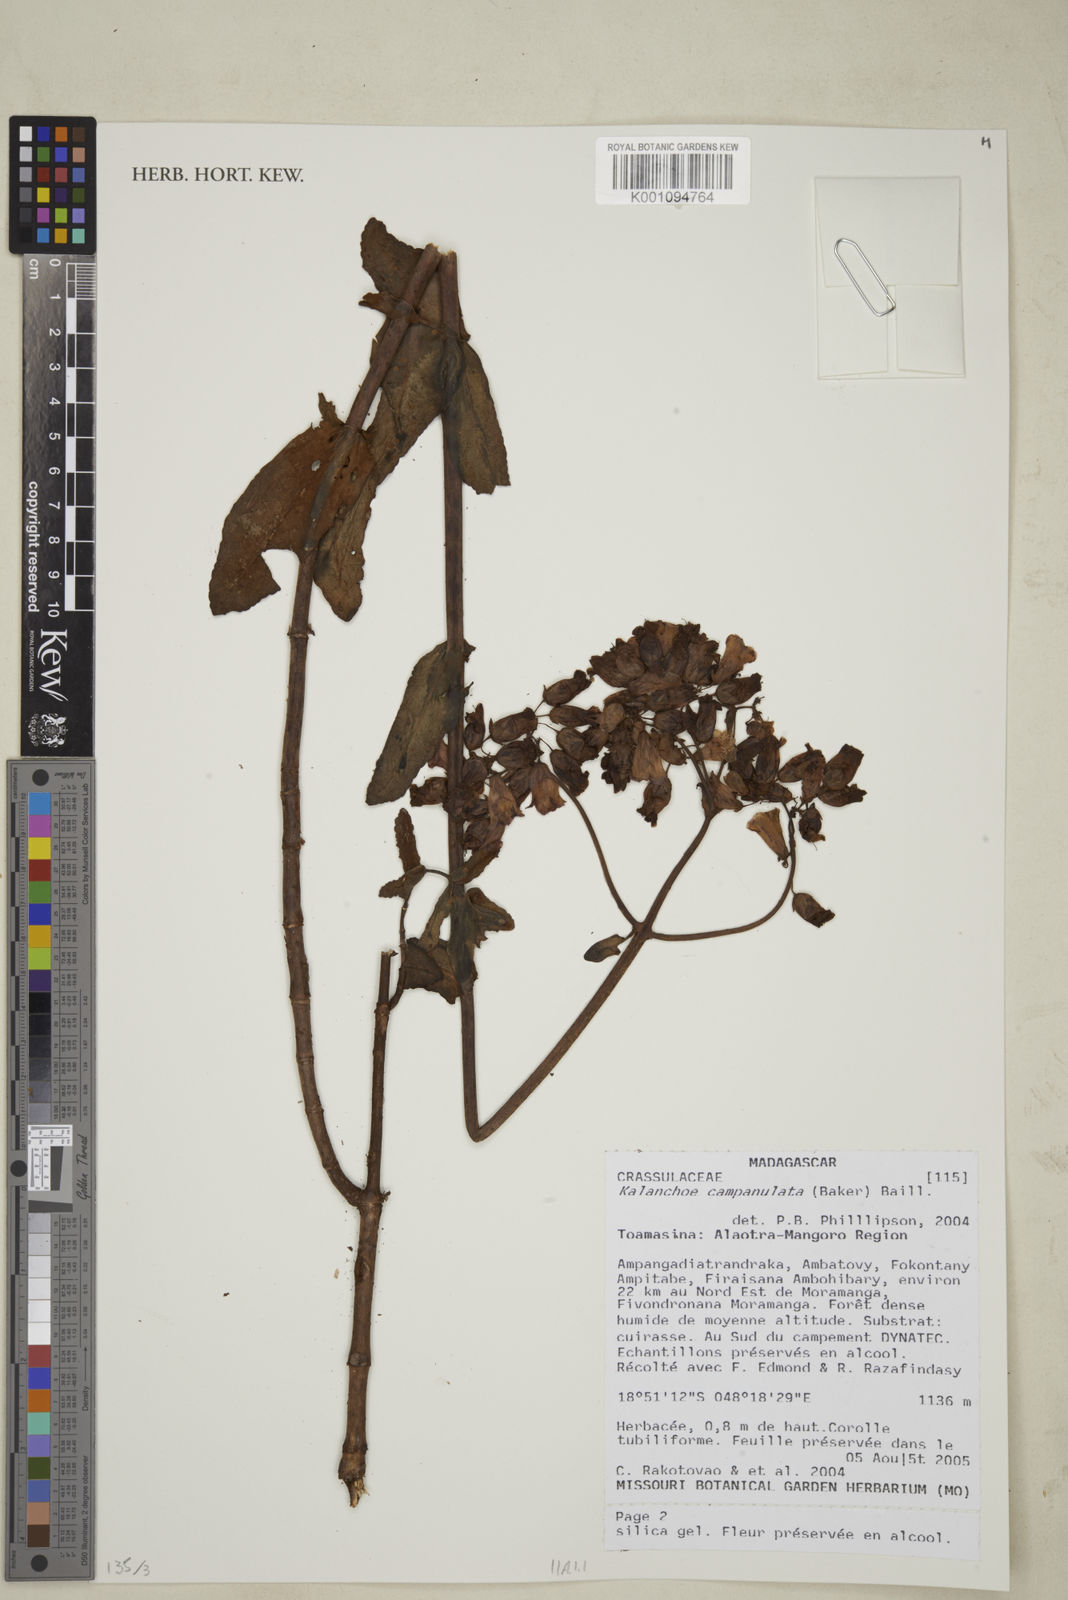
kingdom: Plantae
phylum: Tracheophyta
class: Magnoliopsida
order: Saxifragales
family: Crassulaceae
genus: Kalanchoe
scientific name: Kalanchoe campanulata
